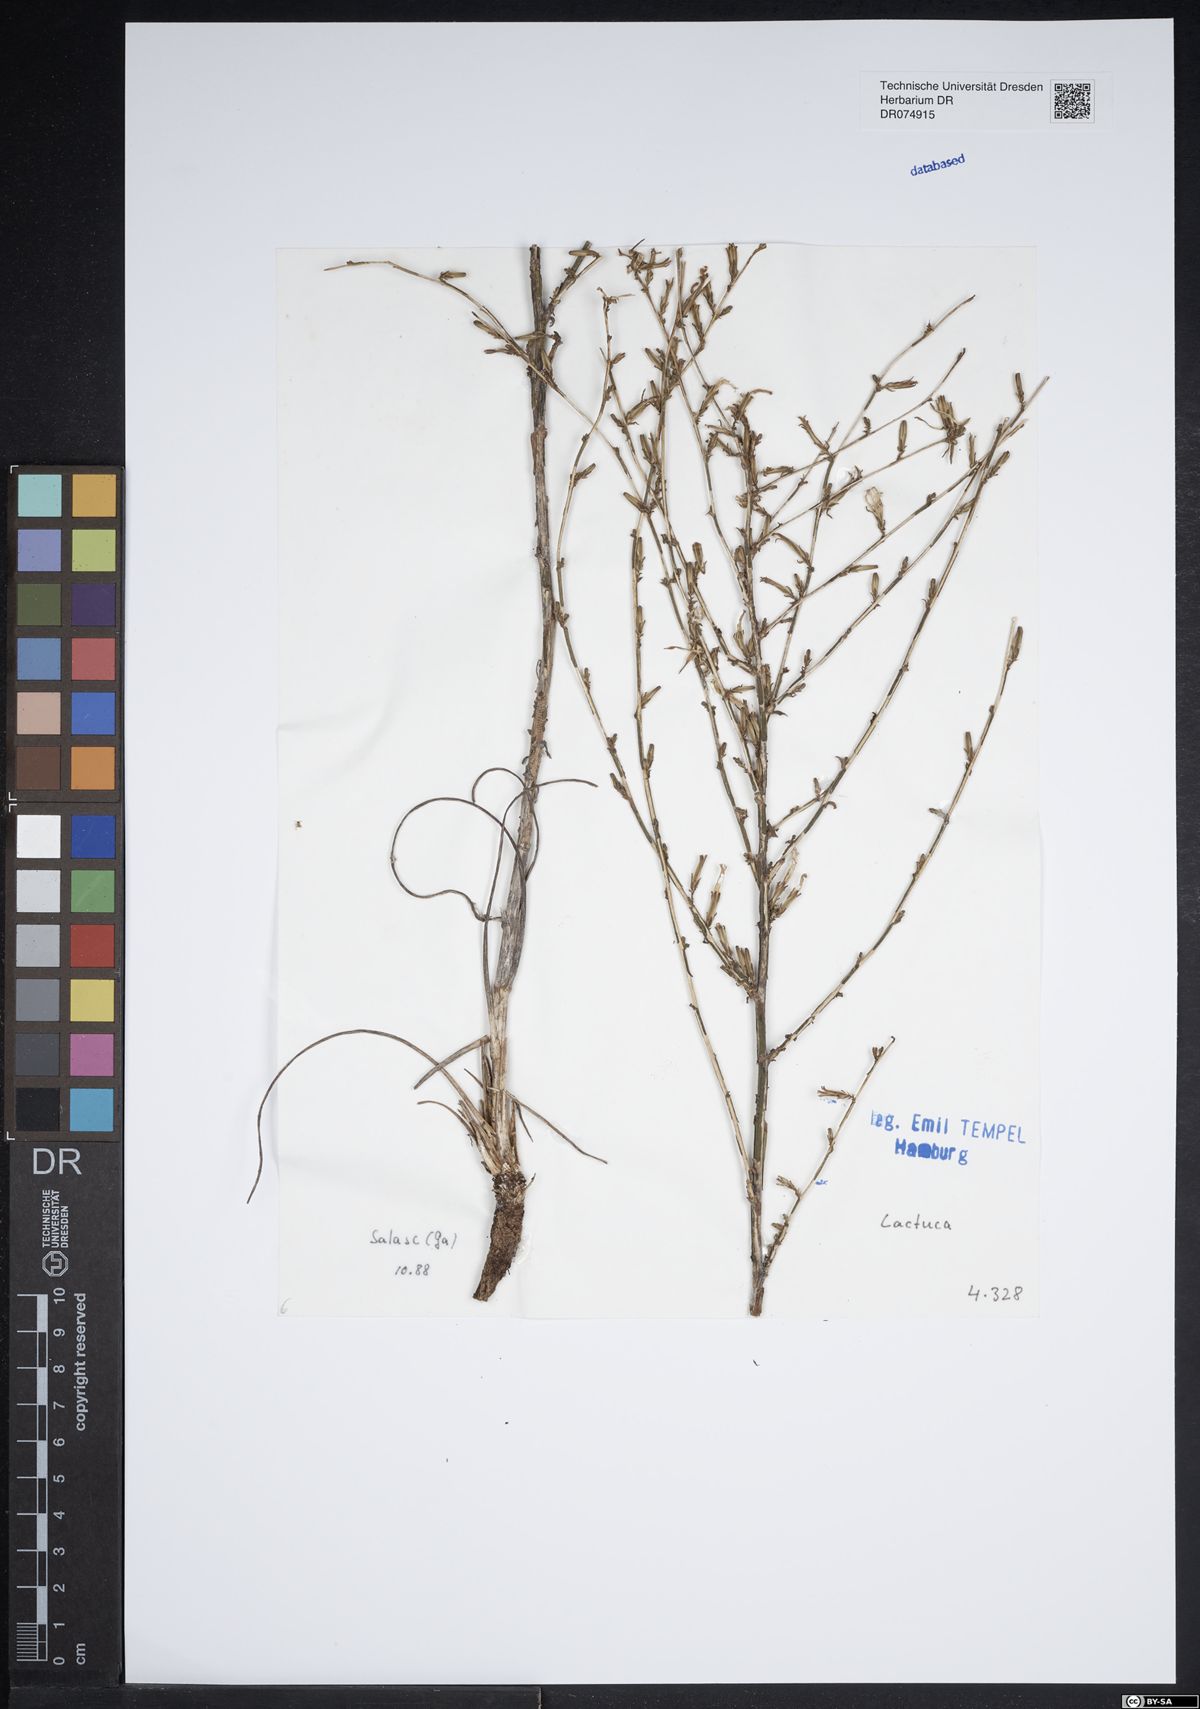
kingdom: Plantae
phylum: Tracheophyta
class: Magnoliopsida
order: Asterales
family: Asteraceae
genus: Lactuca
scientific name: Lactuca
